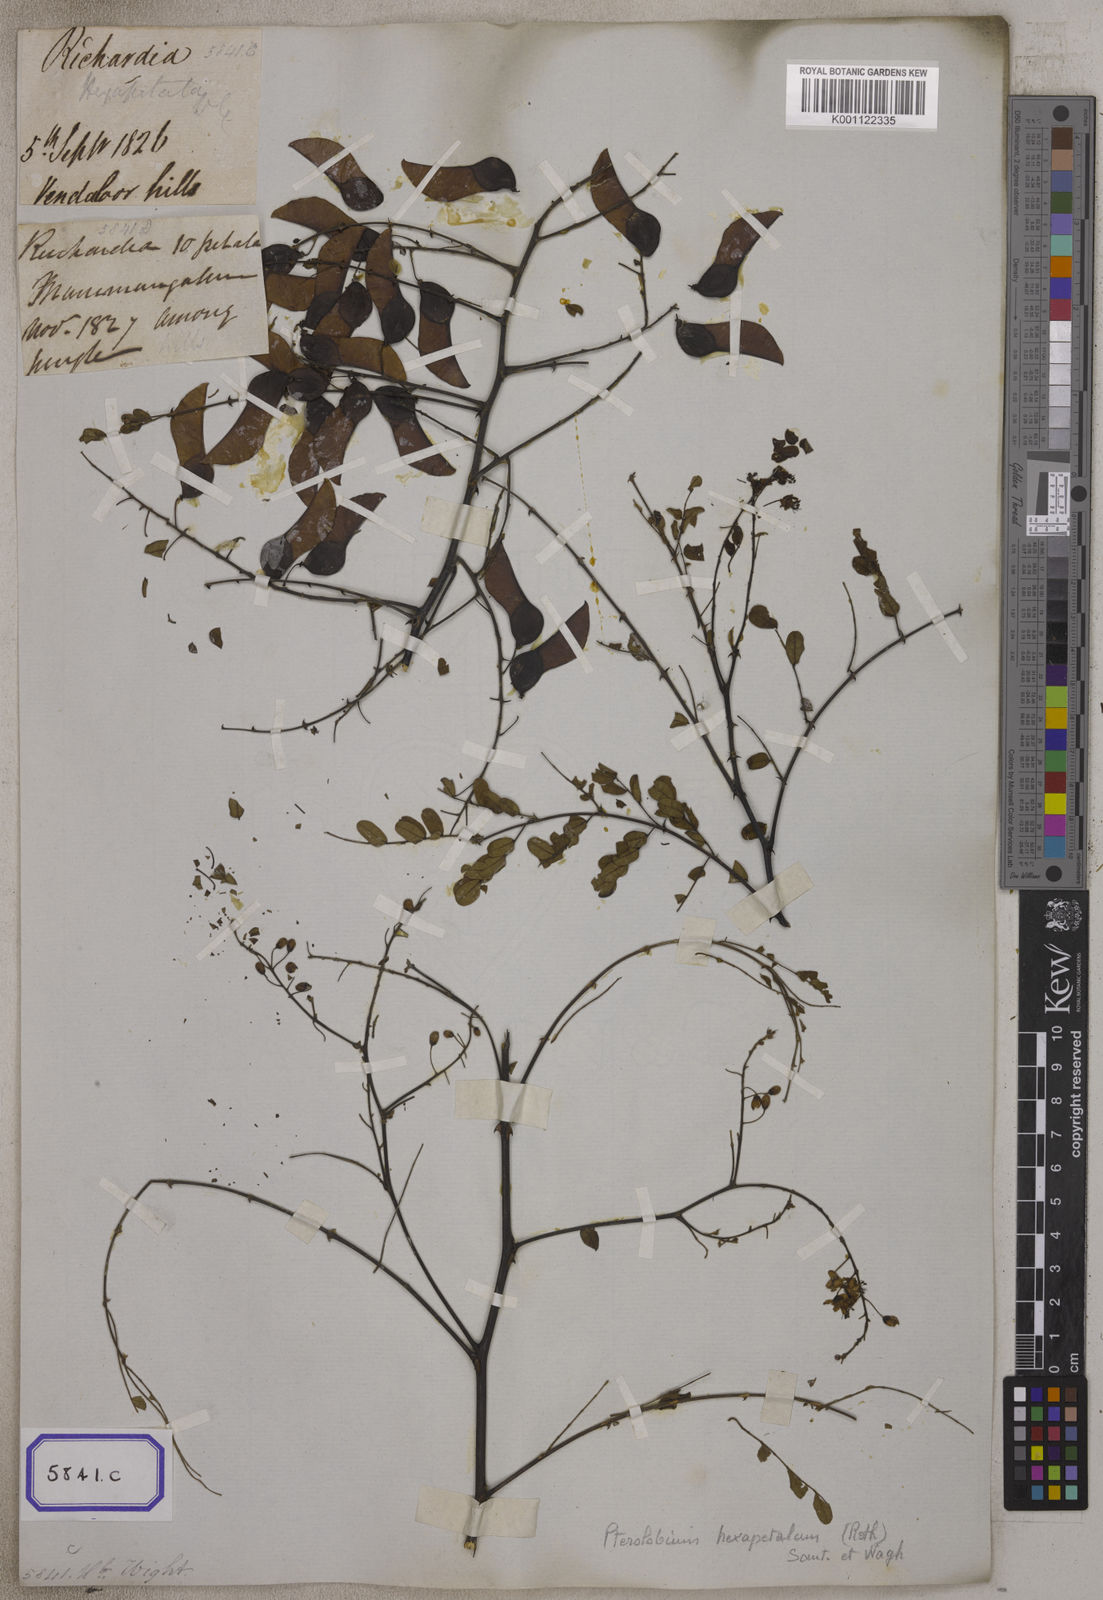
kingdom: Plantae
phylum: Tracheophyta
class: Magnoliopsida
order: Fabales
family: Fabaceae
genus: Pterolobium
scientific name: Pterolobium hexapetalum
